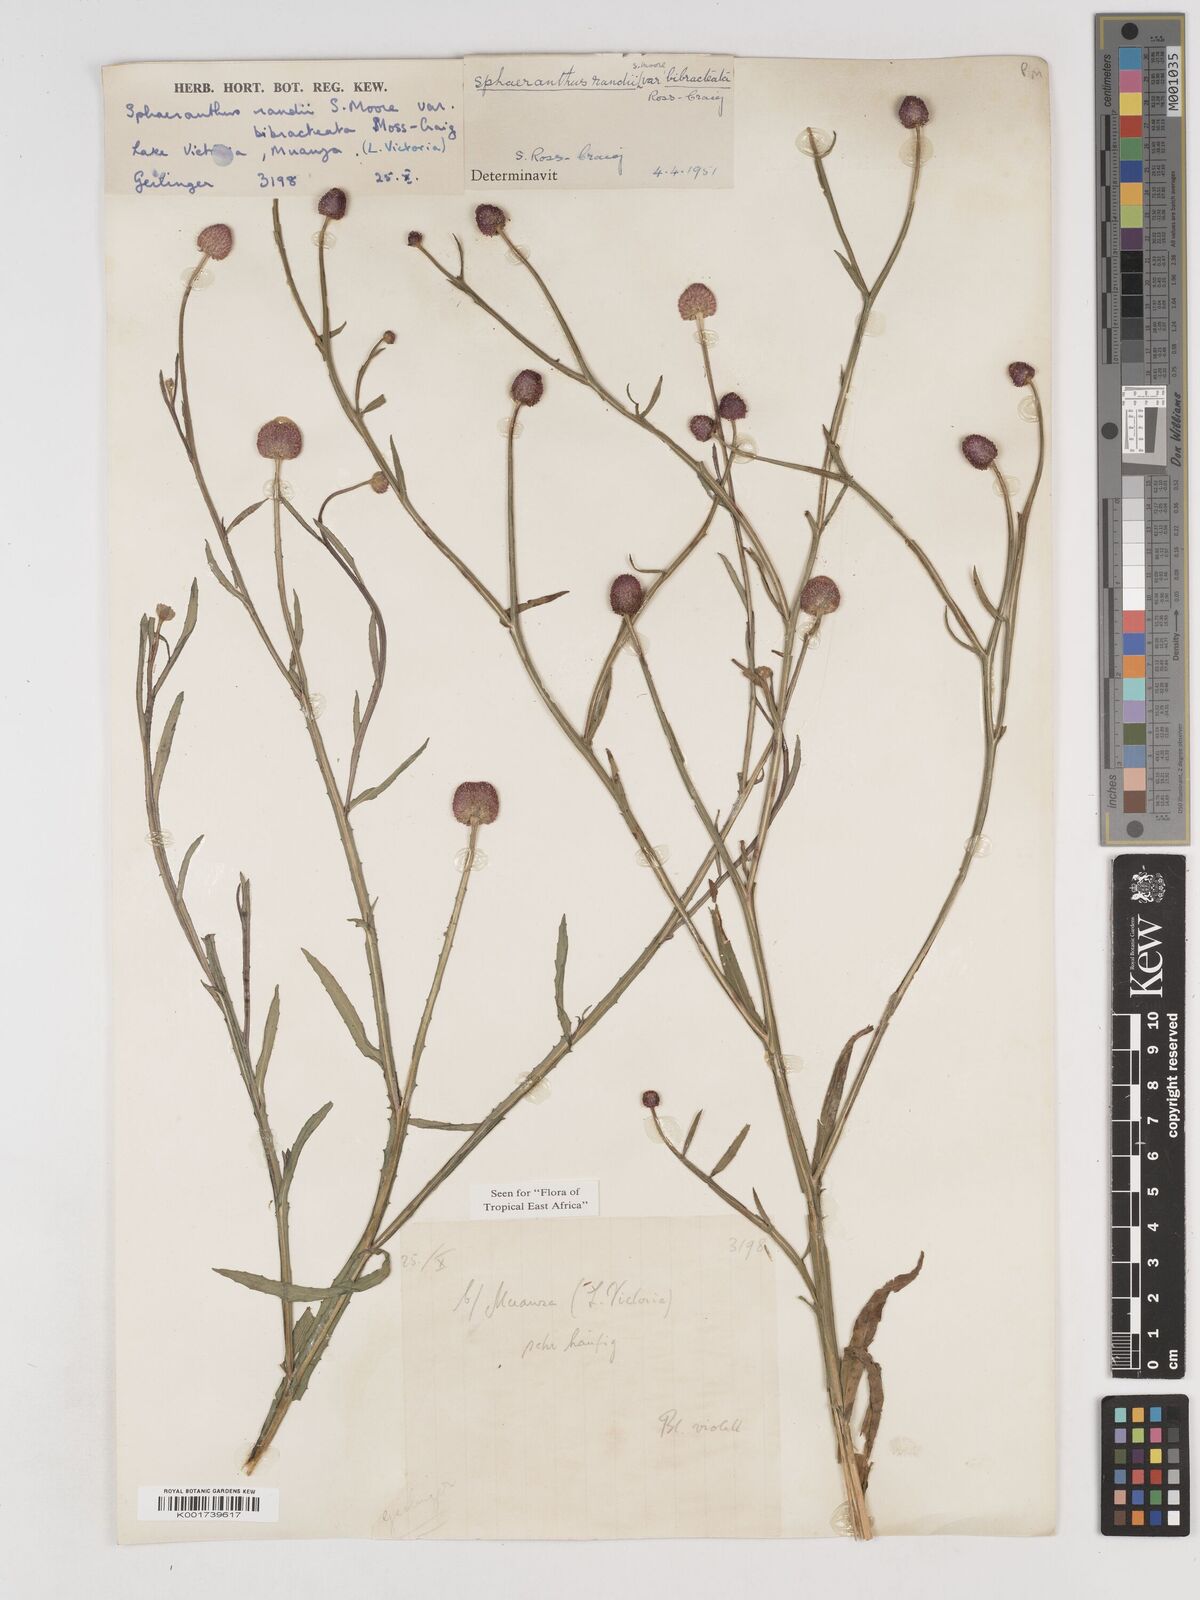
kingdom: Plantae
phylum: Tracheophyta
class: Magnoliopsida
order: Asterales
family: Asteraceae
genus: Sphaeranthus
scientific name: Sphaeranthus randii
